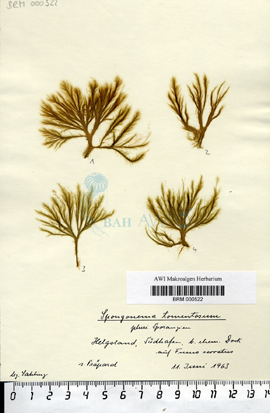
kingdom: Chromista
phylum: Ochrophyta
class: Phaeophyceae
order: Ectocarpales
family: Ectocarpaceae
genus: Spongonema
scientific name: Spongonema tomentosum
